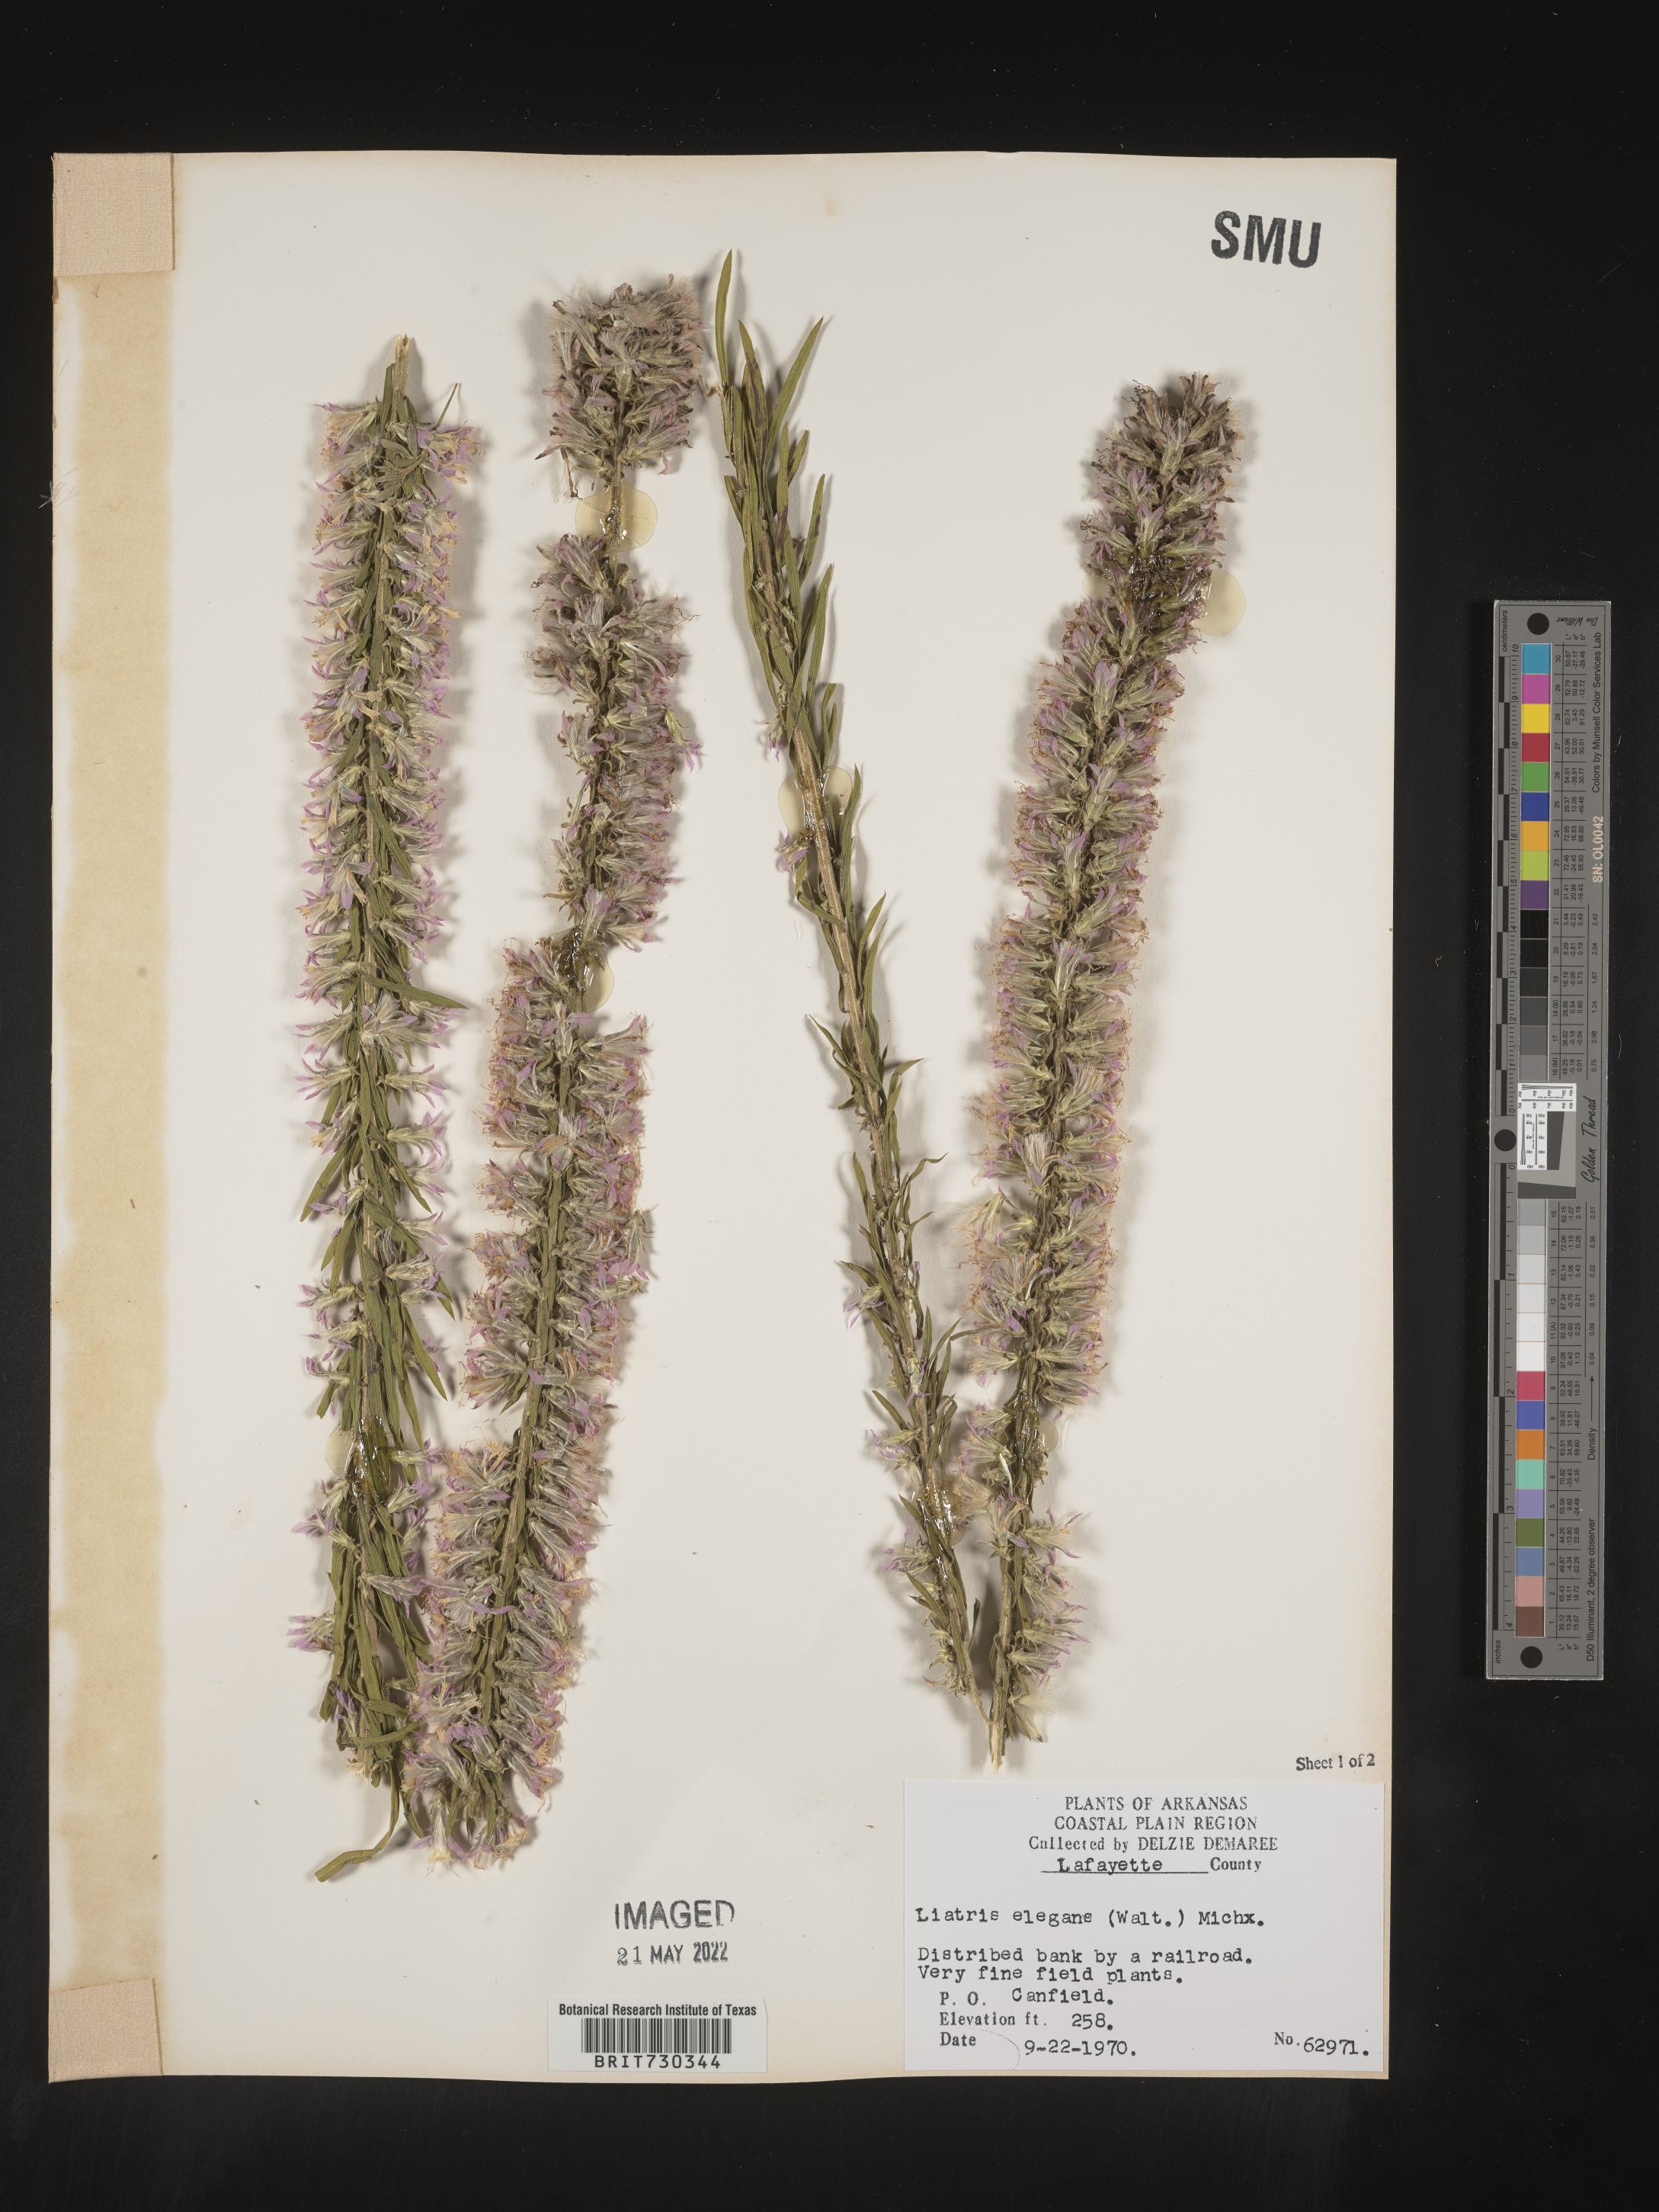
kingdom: Plantae
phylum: Tracheophyta
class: Magnoliopsida
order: Asterales
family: Asteraceae
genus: Liatris
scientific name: Liatris elegans
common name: Pinkscale gayfeather
